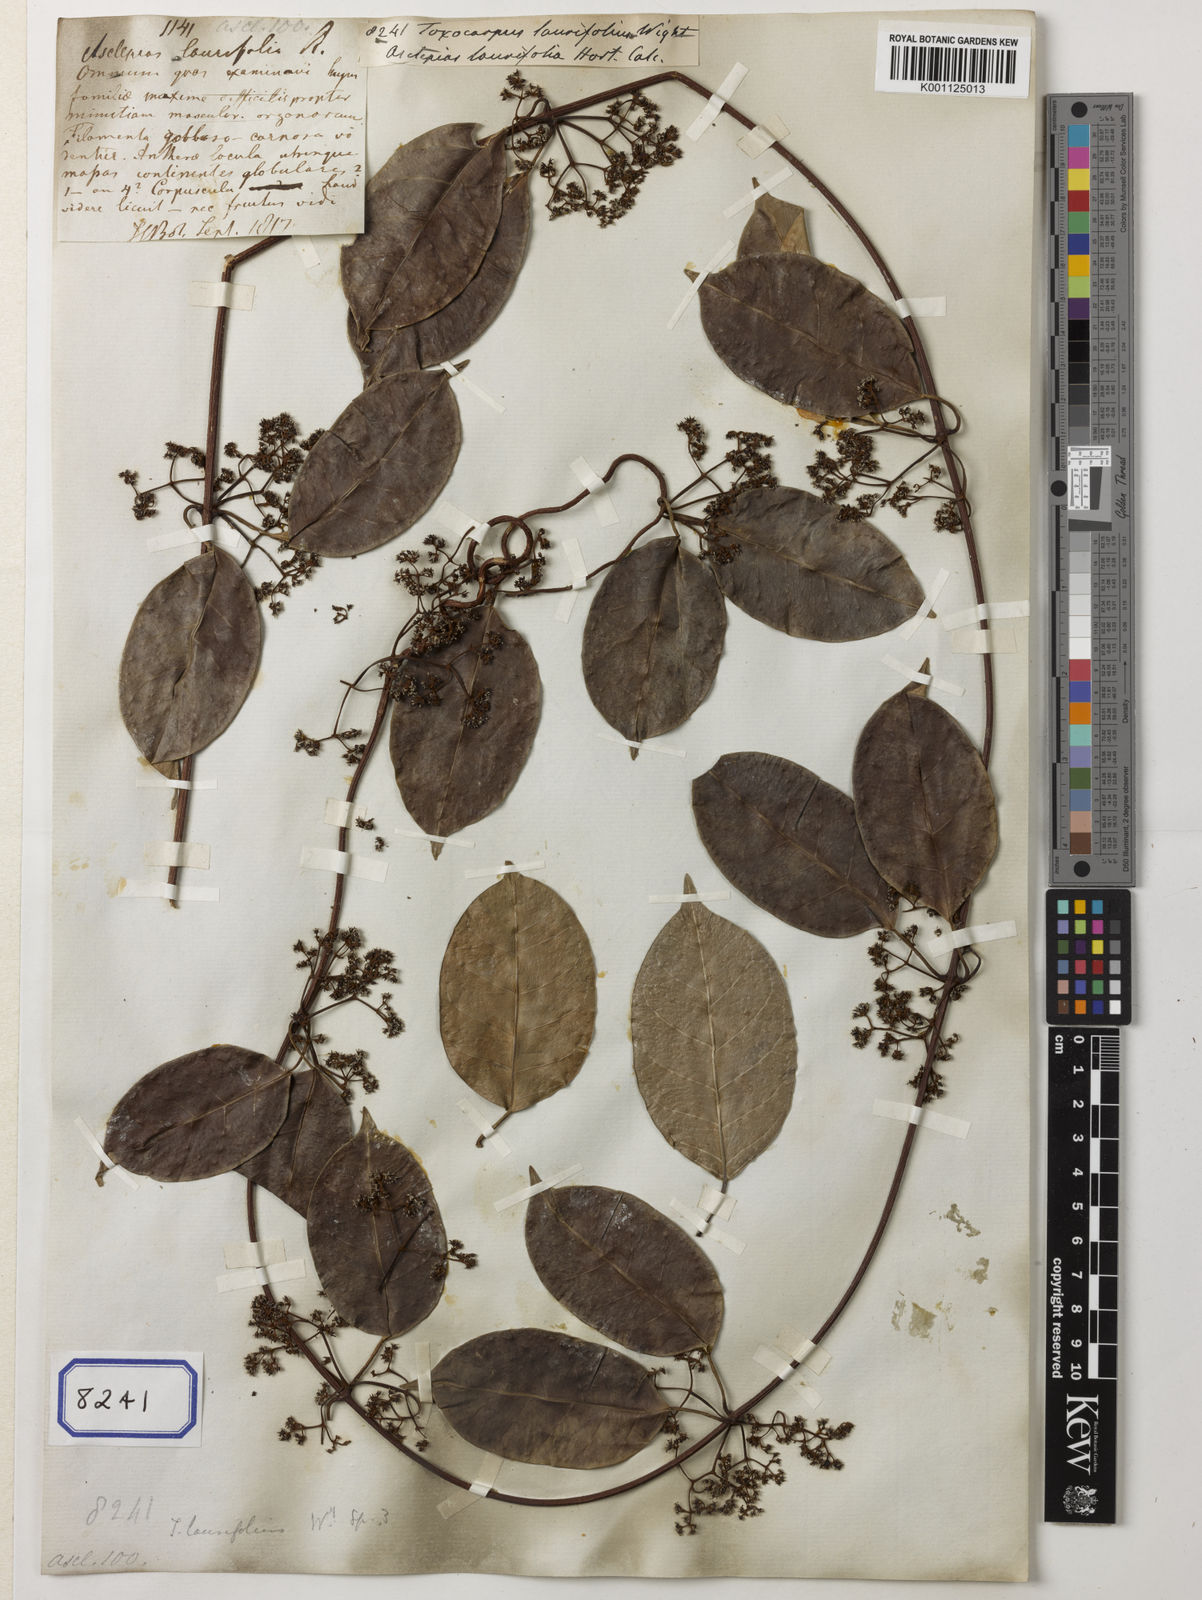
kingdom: Plantae
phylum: Tracheophyta
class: Magnoliopsida
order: Gentianales
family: Apocynaceae
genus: Genianthus
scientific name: Genianthus micranthus
